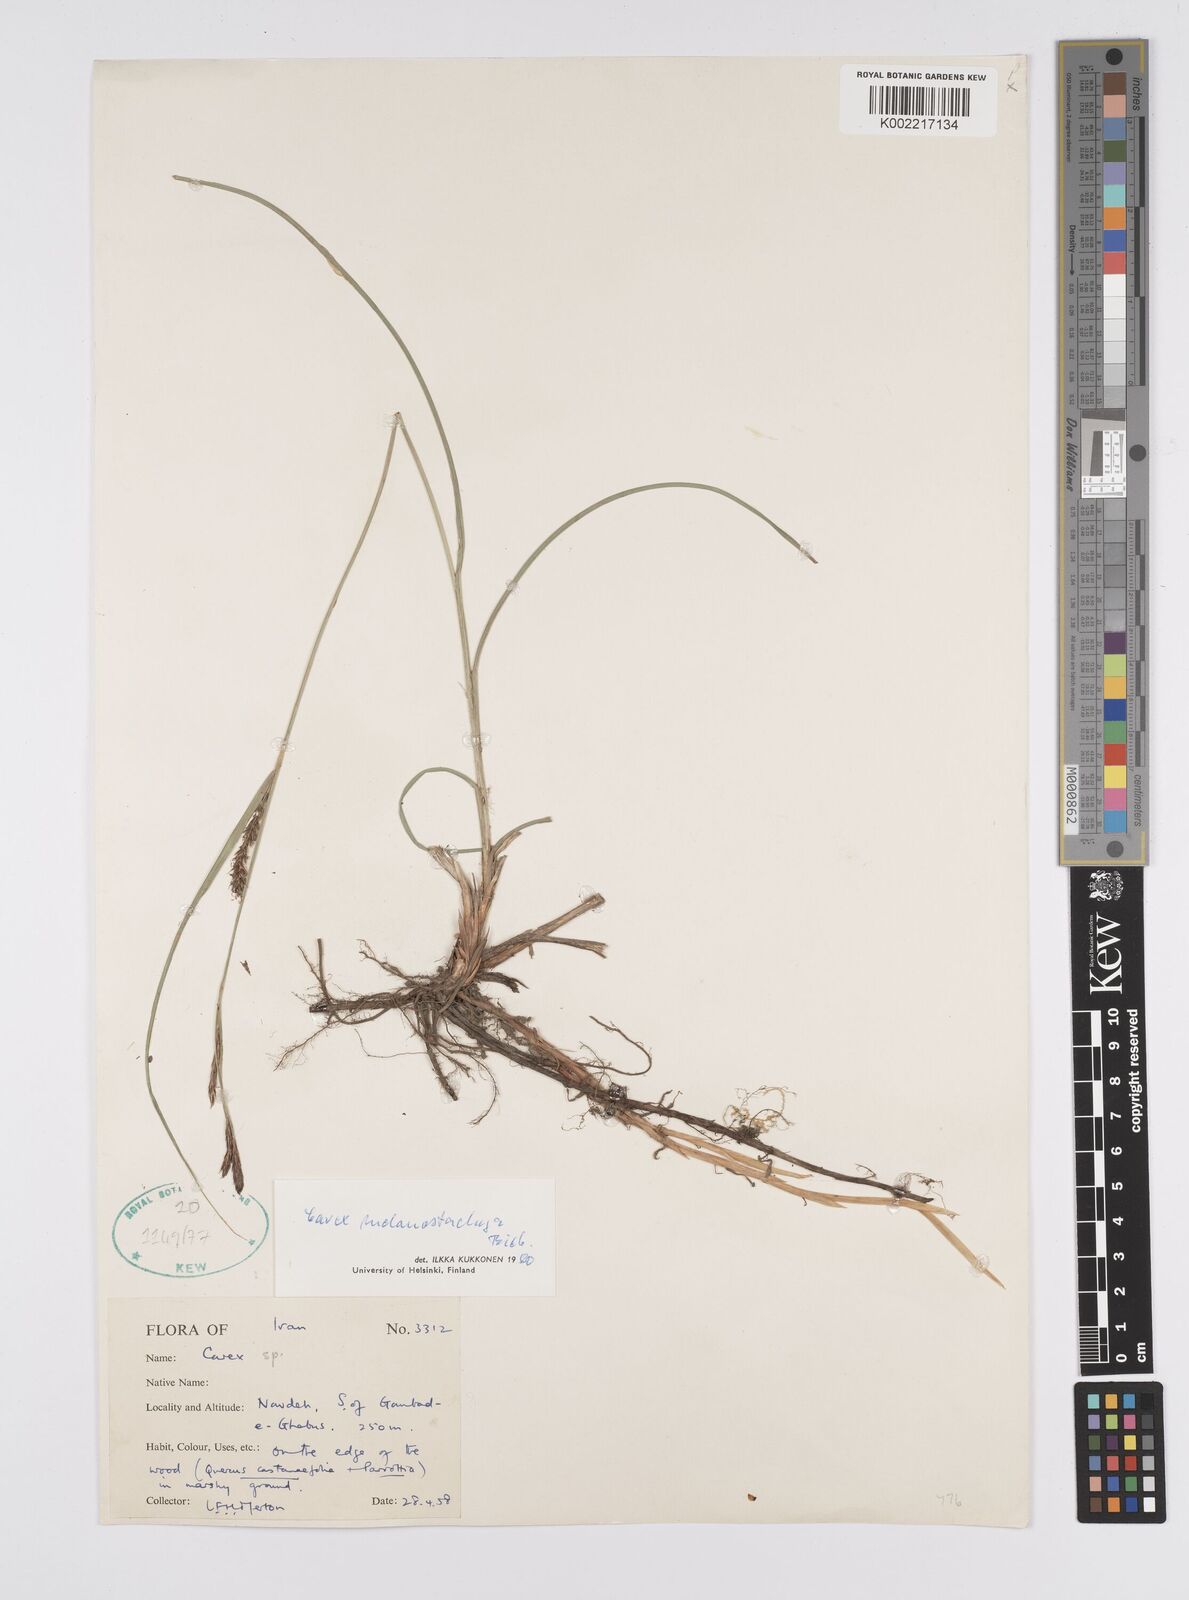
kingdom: Plantae
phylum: Tracheophyta
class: Liliopsida
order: Poales
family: Cyperaceae
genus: Carex
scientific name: Carex melanostachya
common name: Black-spiked sedge
